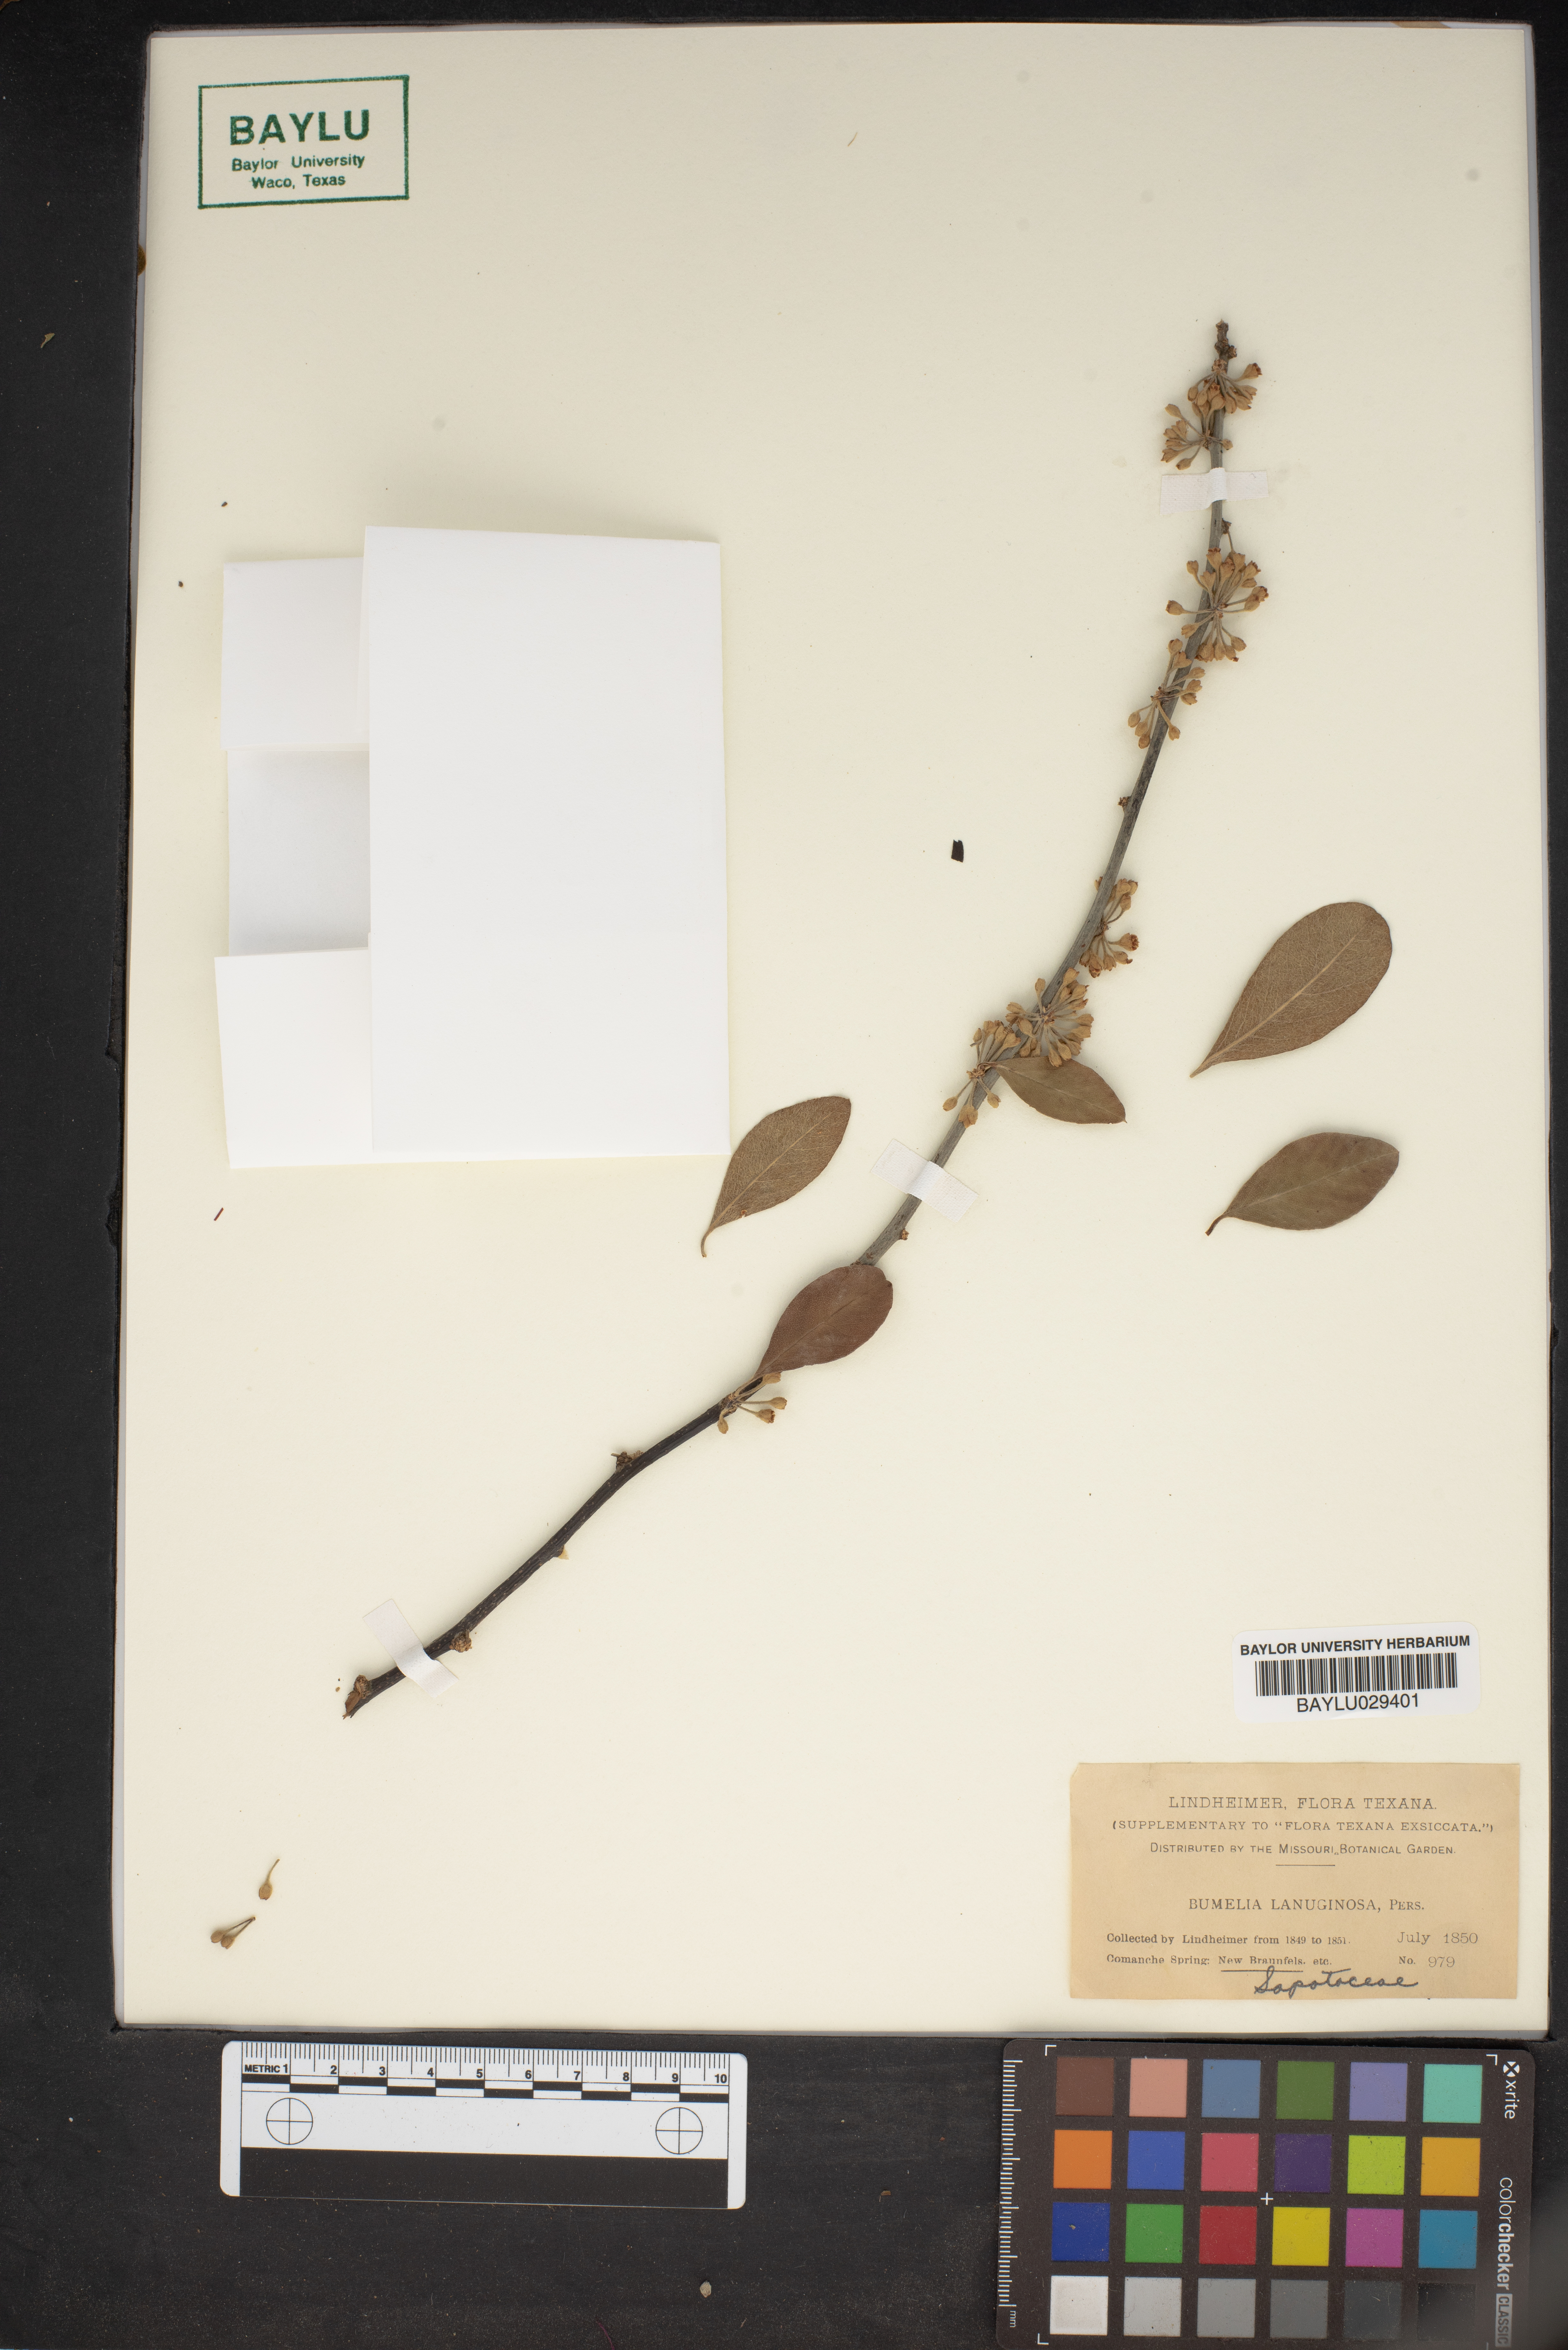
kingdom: Plantae
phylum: Tracheophyta
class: Magnoliopsida
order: Ericales
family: Sapotaceae
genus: Sideroxylon
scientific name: Sideroxylon lanuginosum
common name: Chittamwood
